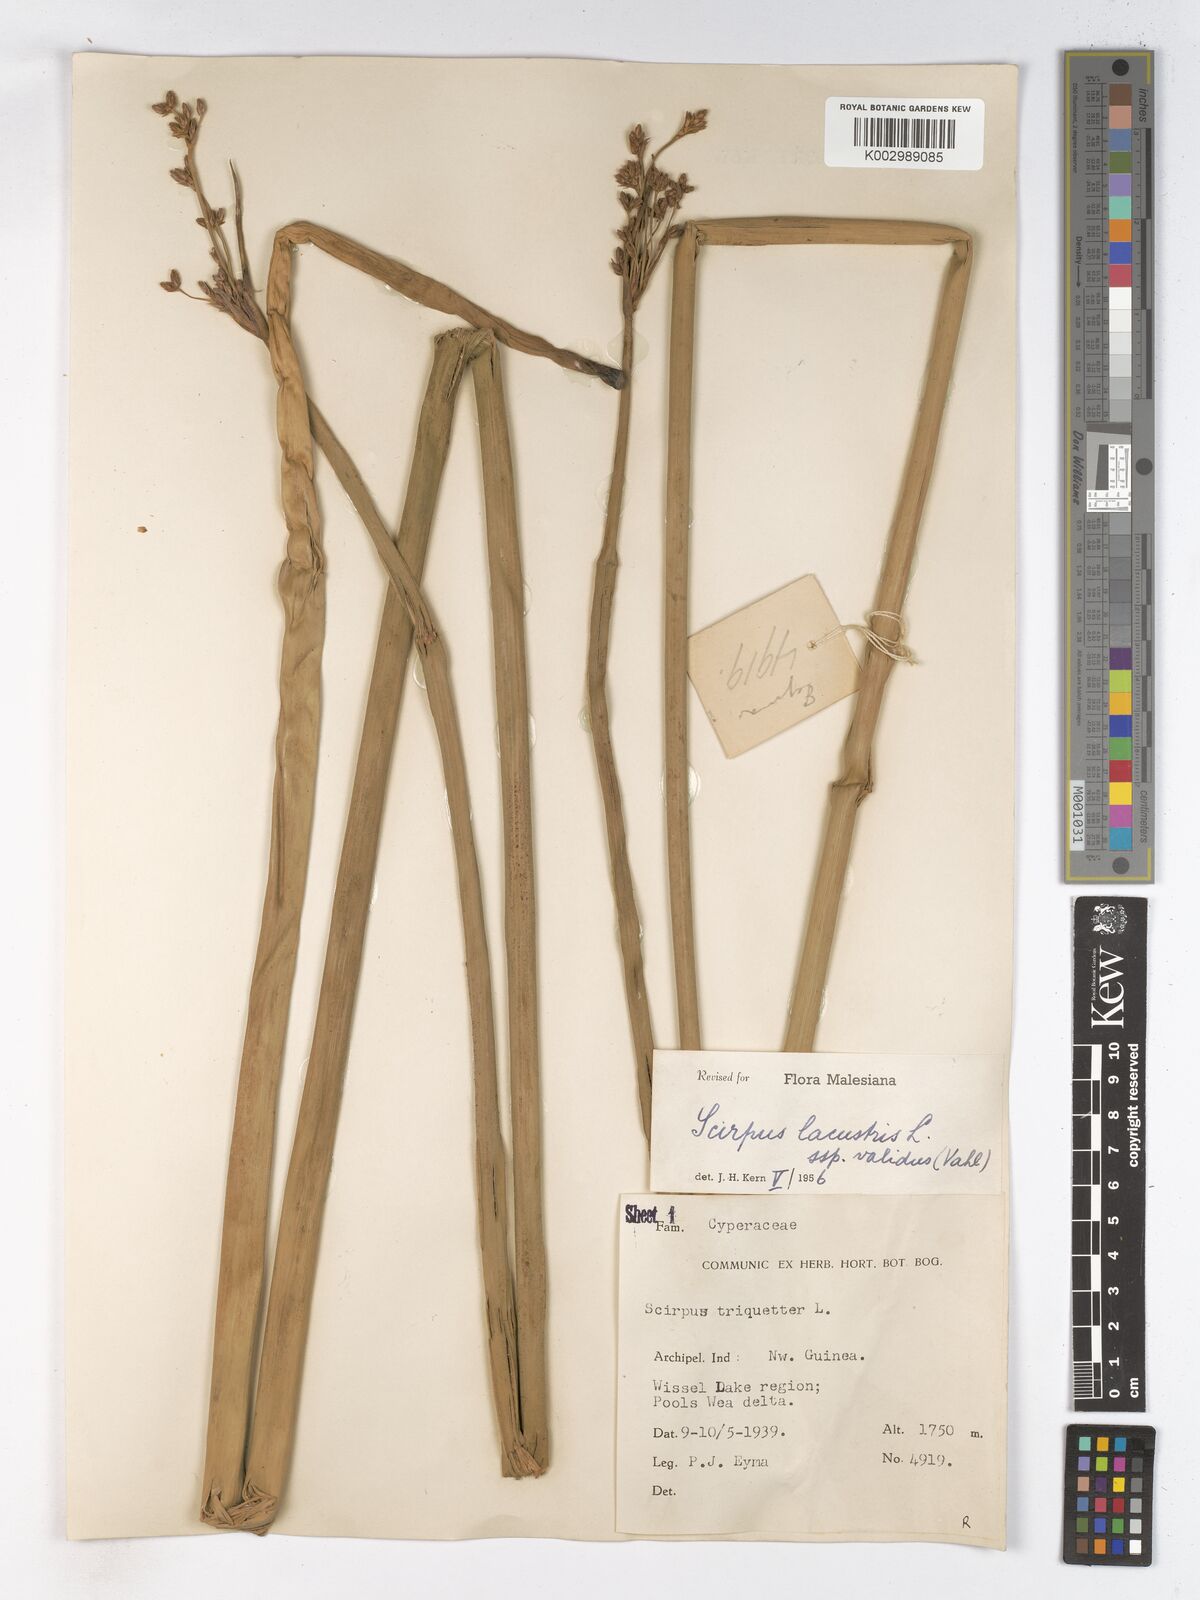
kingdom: Plantae
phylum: Tracheophyta
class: Liliopsida
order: Poales
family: Cyperaceae
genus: Schoenoplectus
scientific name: Schoenoplectus lacustris
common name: Common club-rush
